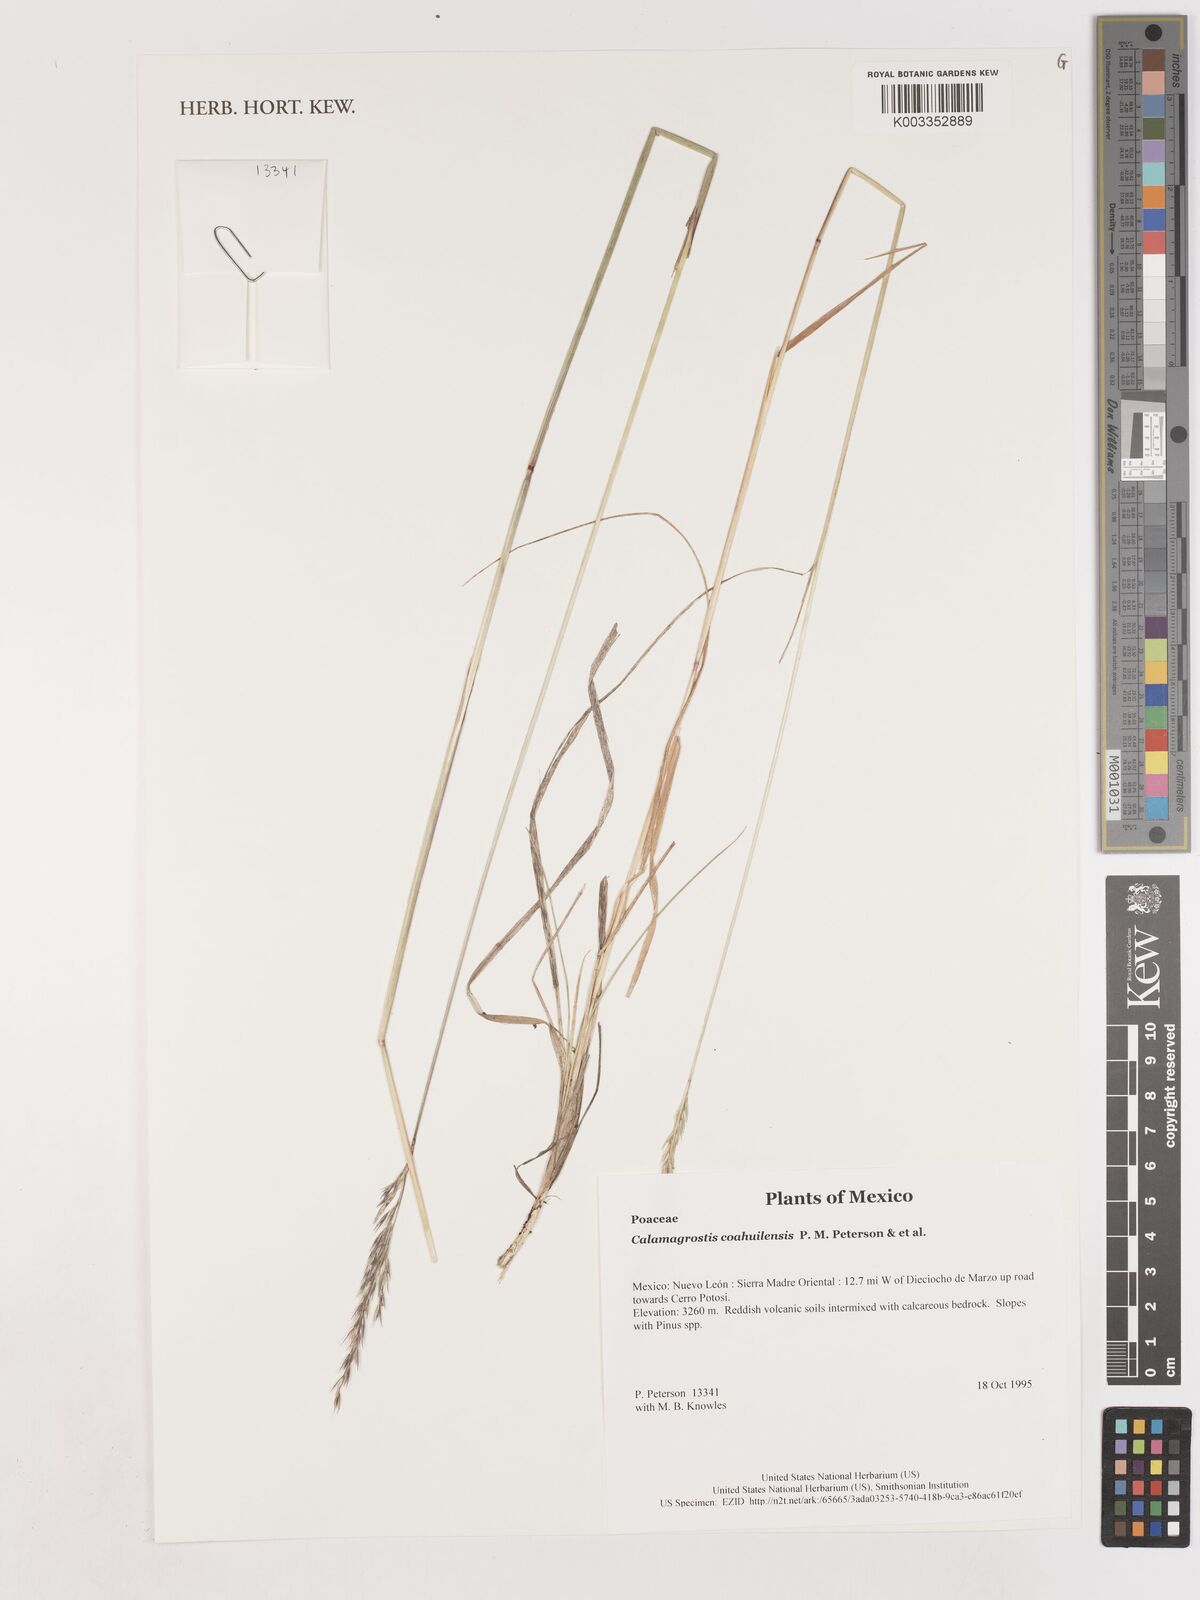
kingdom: Plantae
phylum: Tracheophyta
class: Liliopsida
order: Poales
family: Poaceae
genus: Peyritschia
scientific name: Peyritschia coahuilensis
